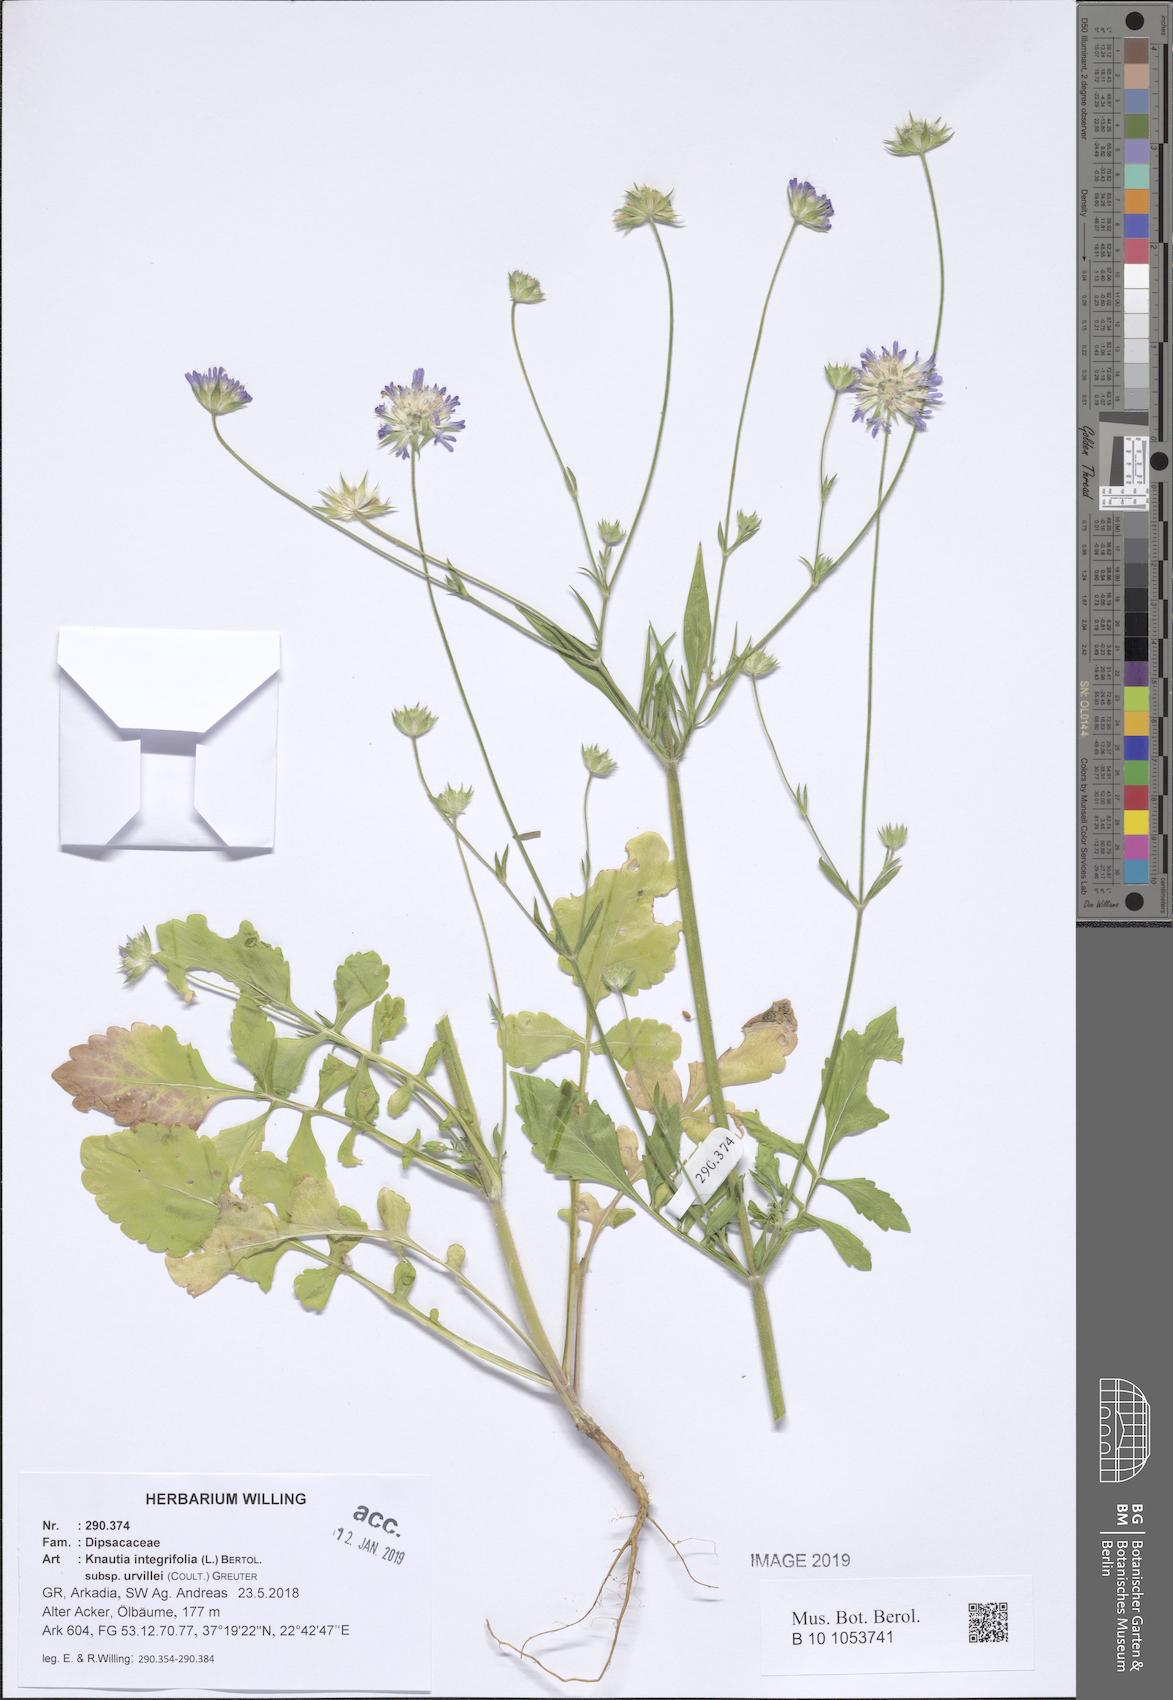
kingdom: Plantae
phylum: Tracheophyta
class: Magnoliopsida
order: Dipsacales
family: Caprifoliaceae
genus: Knautia
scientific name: Knautia integrifolia
